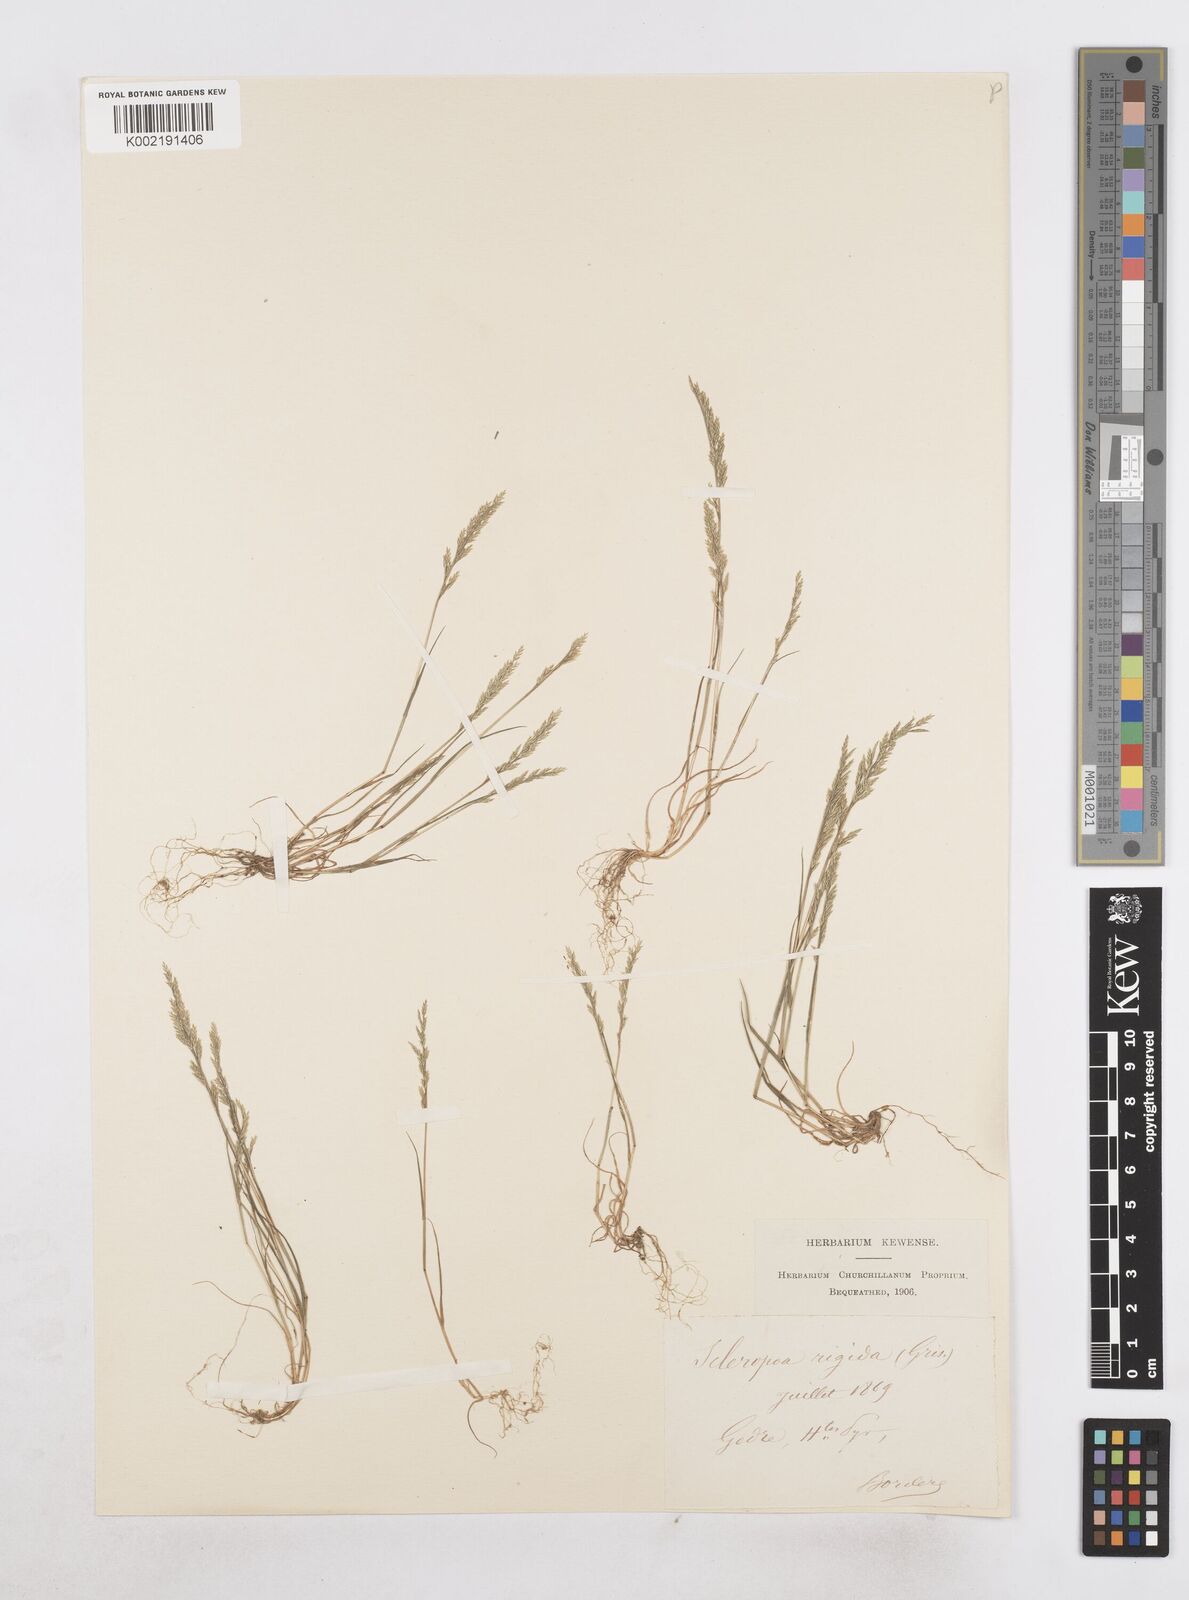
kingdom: Plantae
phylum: Tracheophyta
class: Liliopsida
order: Poales
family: Poaceae
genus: Catapodium
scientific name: Catapodium rigidum
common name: Fern-grass
